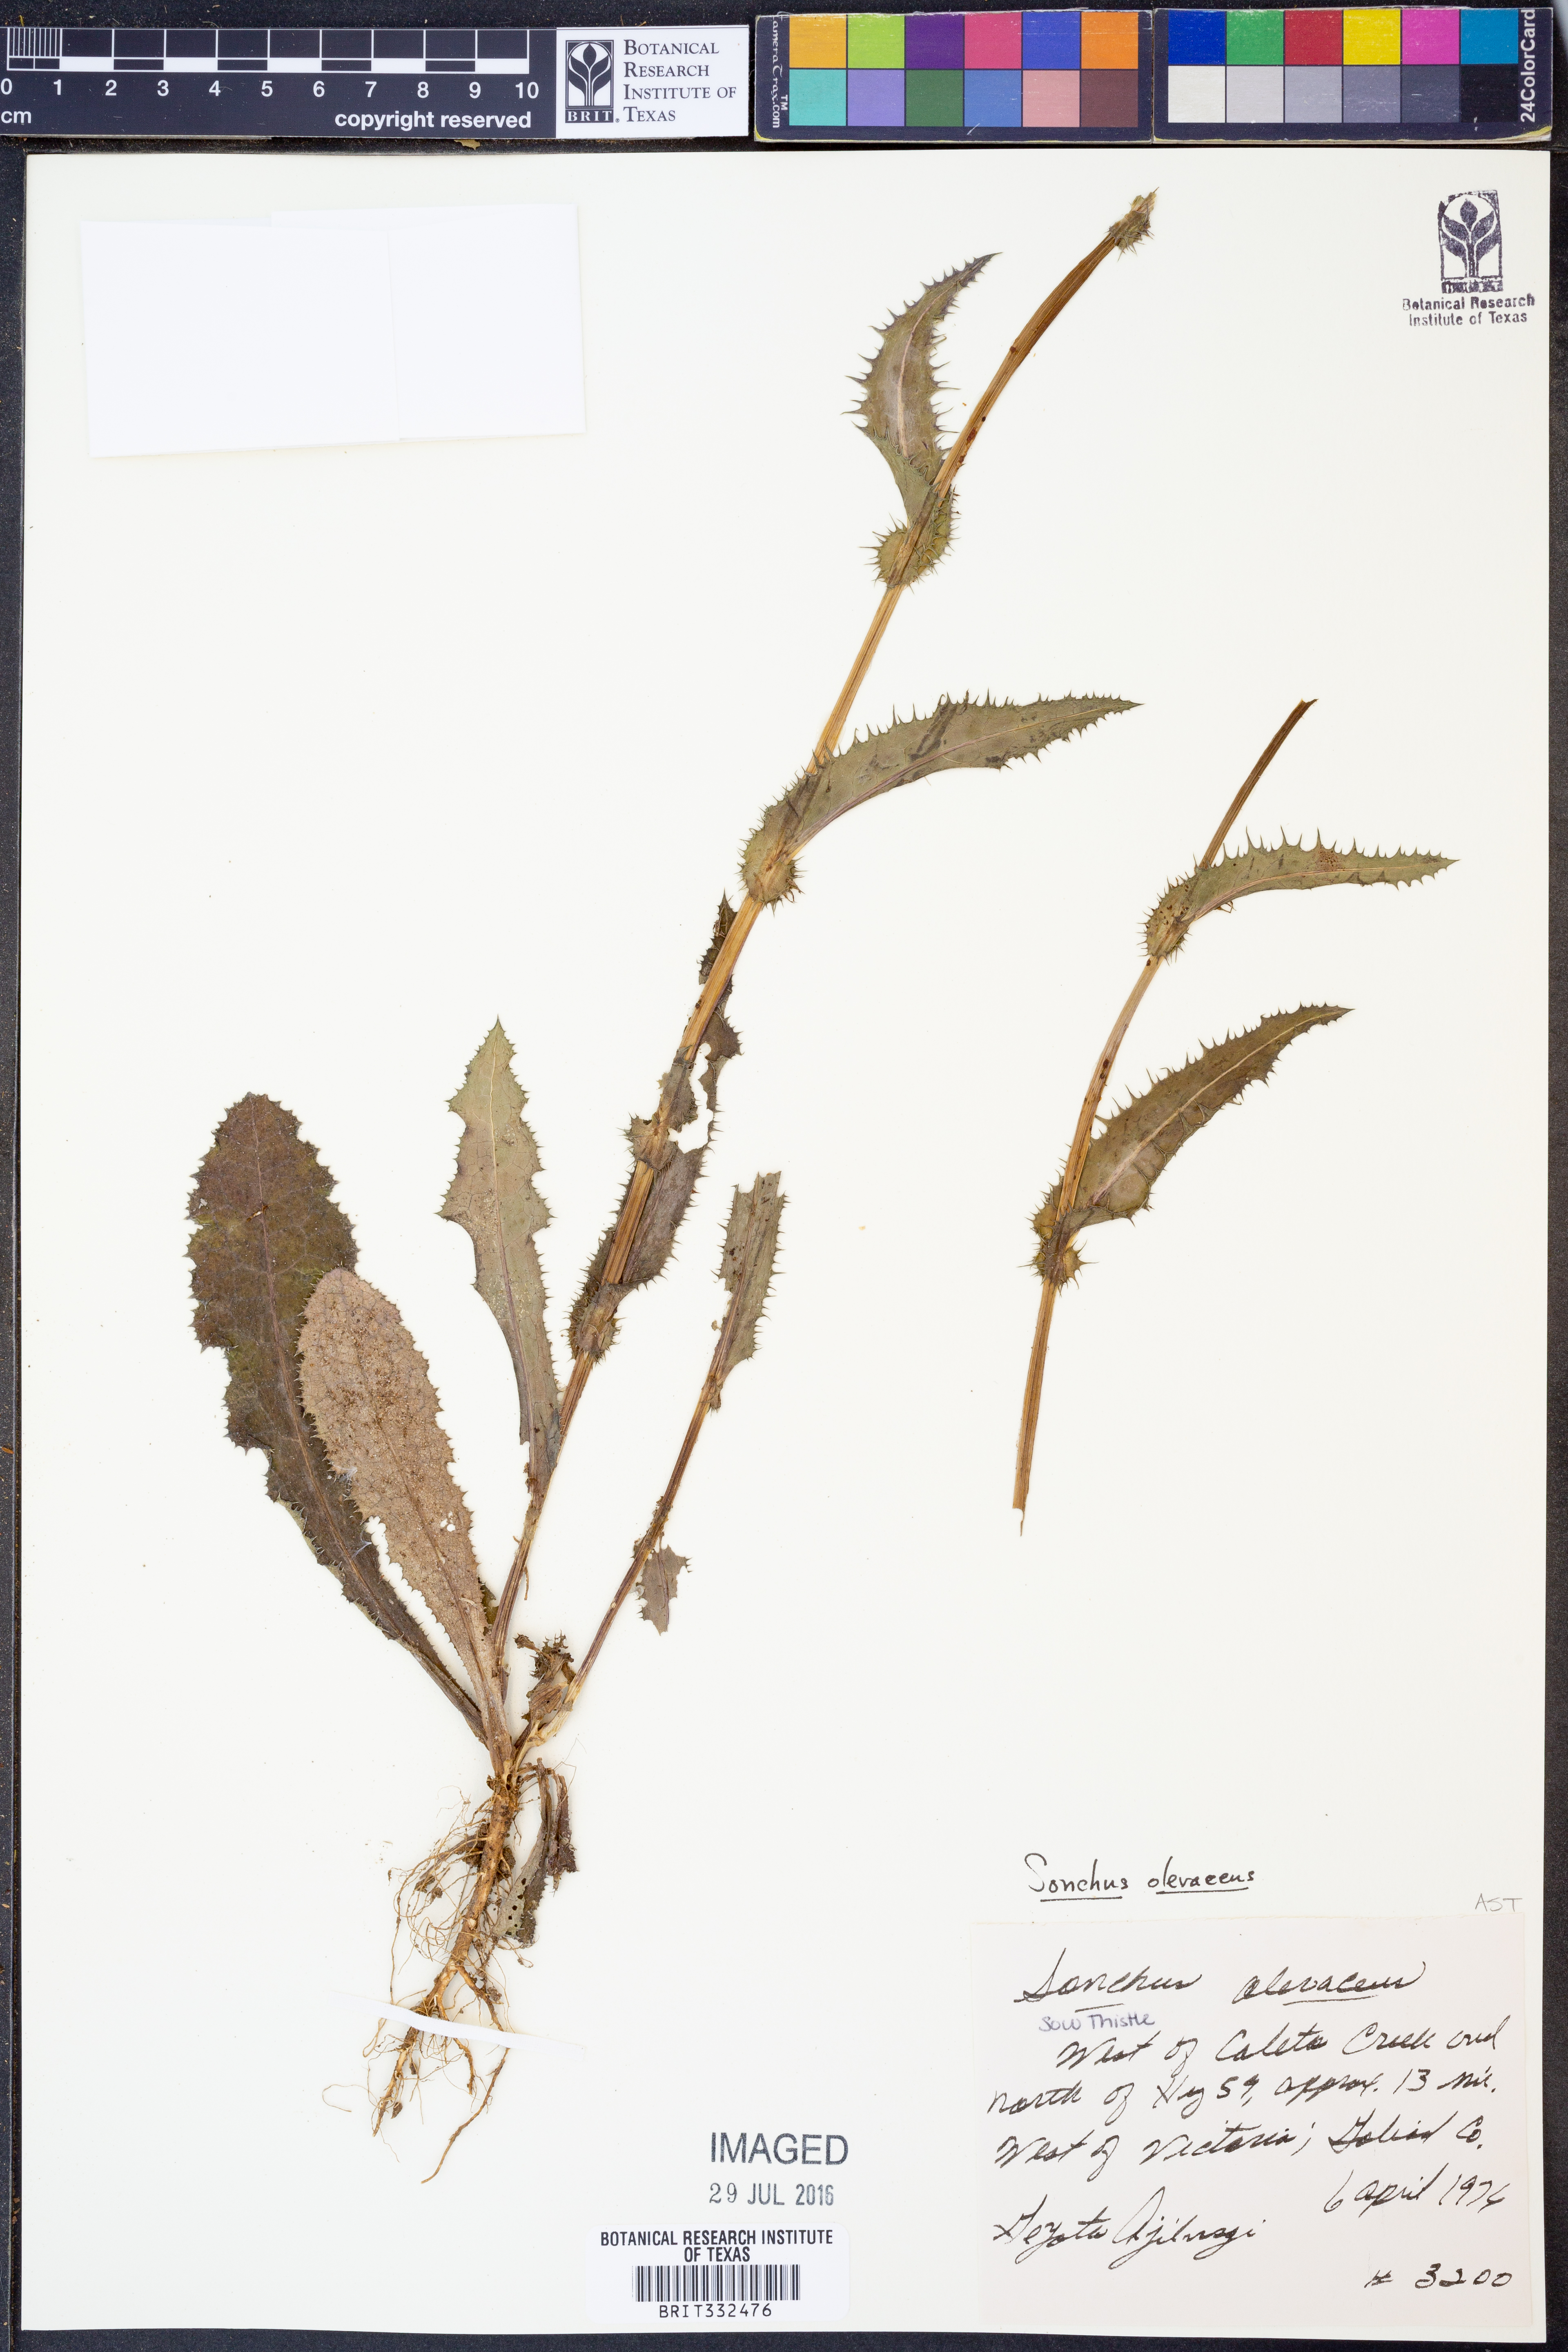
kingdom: Plantae
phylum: Tracheophyta
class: Magnoliopsida
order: Asterales
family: Asteraceae
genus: Sonchus
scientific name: Sonchus oleraceus
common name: Common sowthistle
